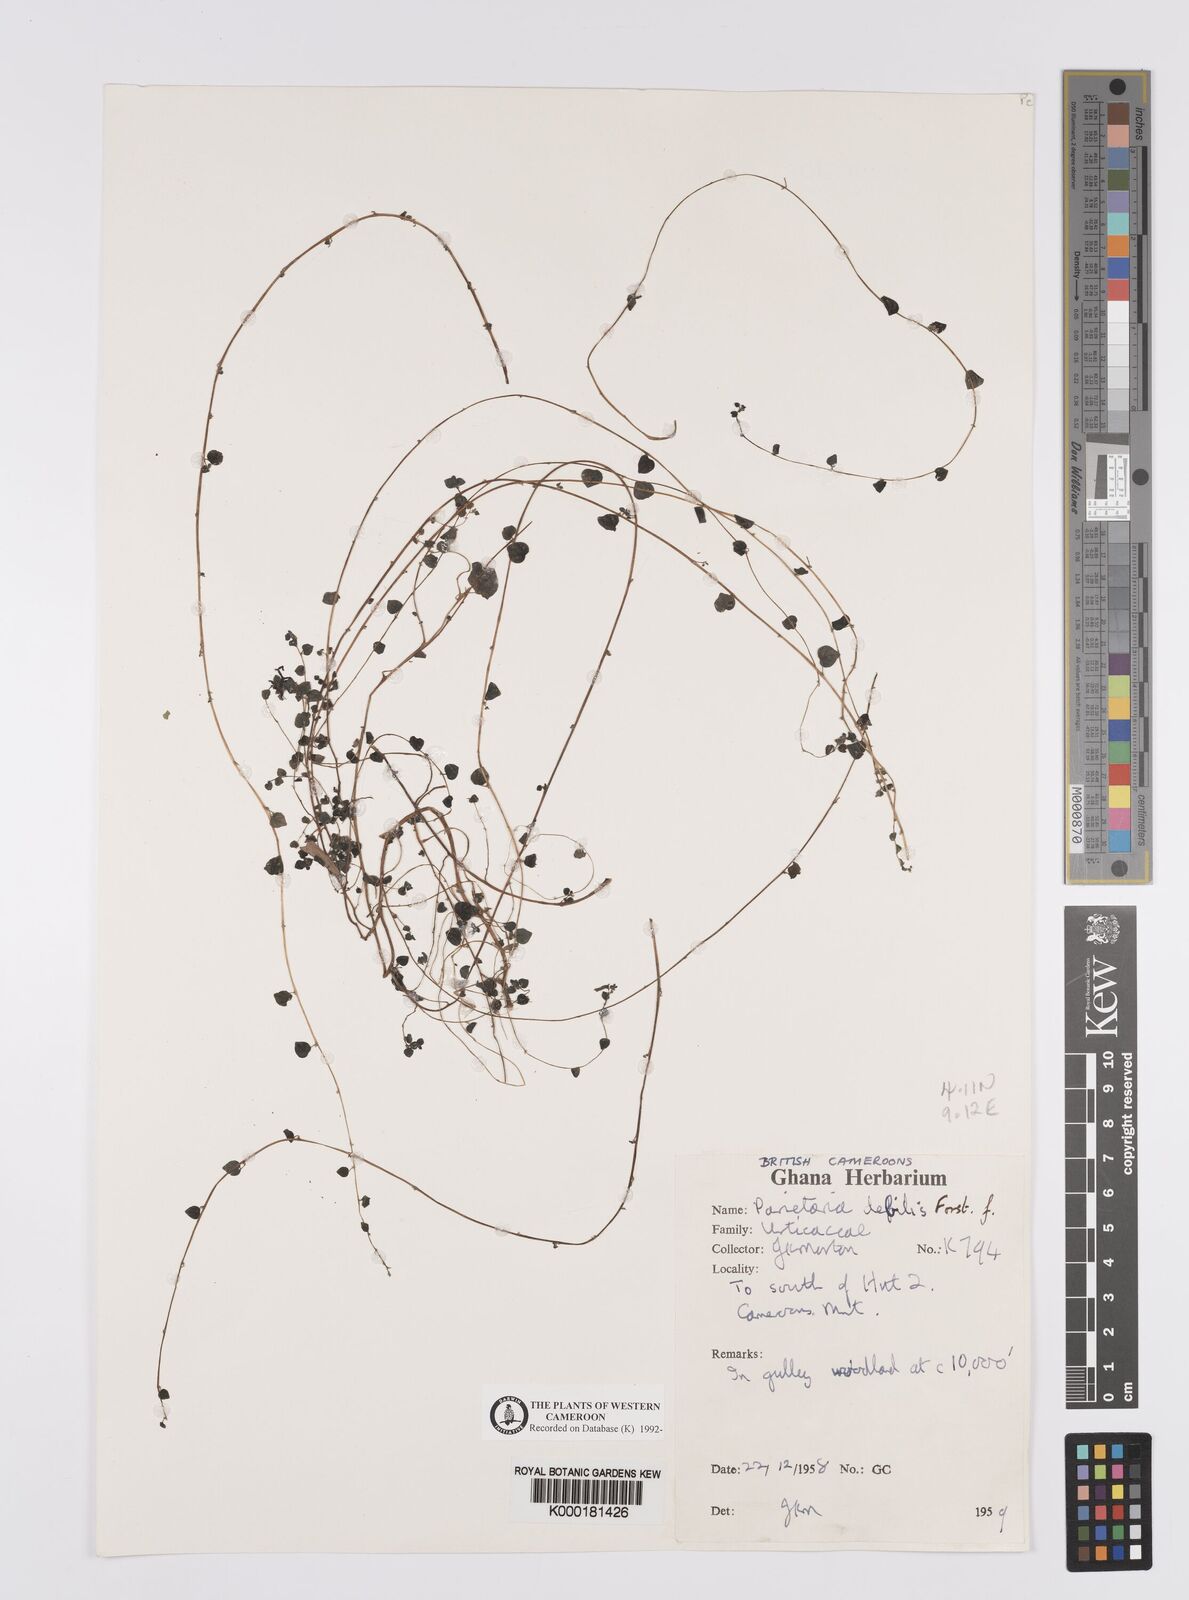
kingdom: Plantae
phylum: Tracheophyta
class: Magnoliopsida
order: Rosales
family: Urticaceae
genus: Parietaria
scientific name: Parietaria debilis
